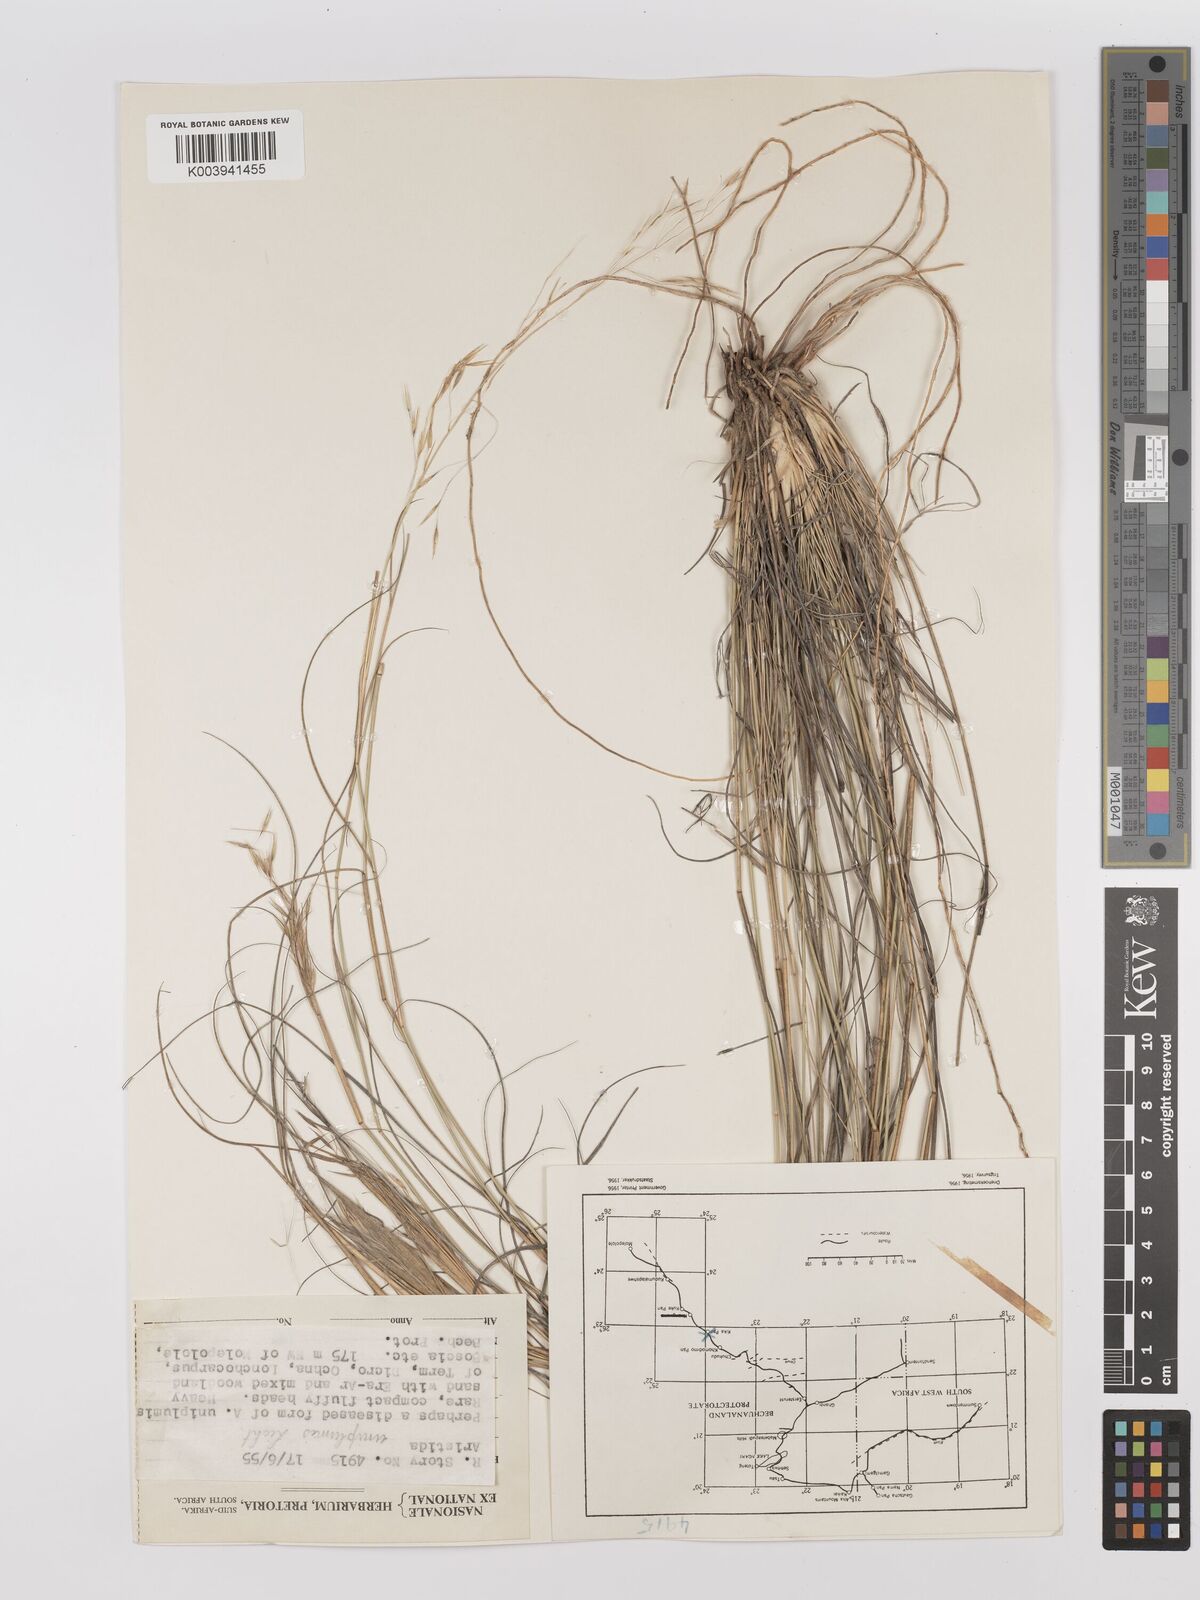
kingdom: Plantae
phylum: Tracheophyta
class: Liliopsida
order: Poales
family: Poaceae
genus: Stipagrostis
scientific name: Stipagrostis uniplumis
